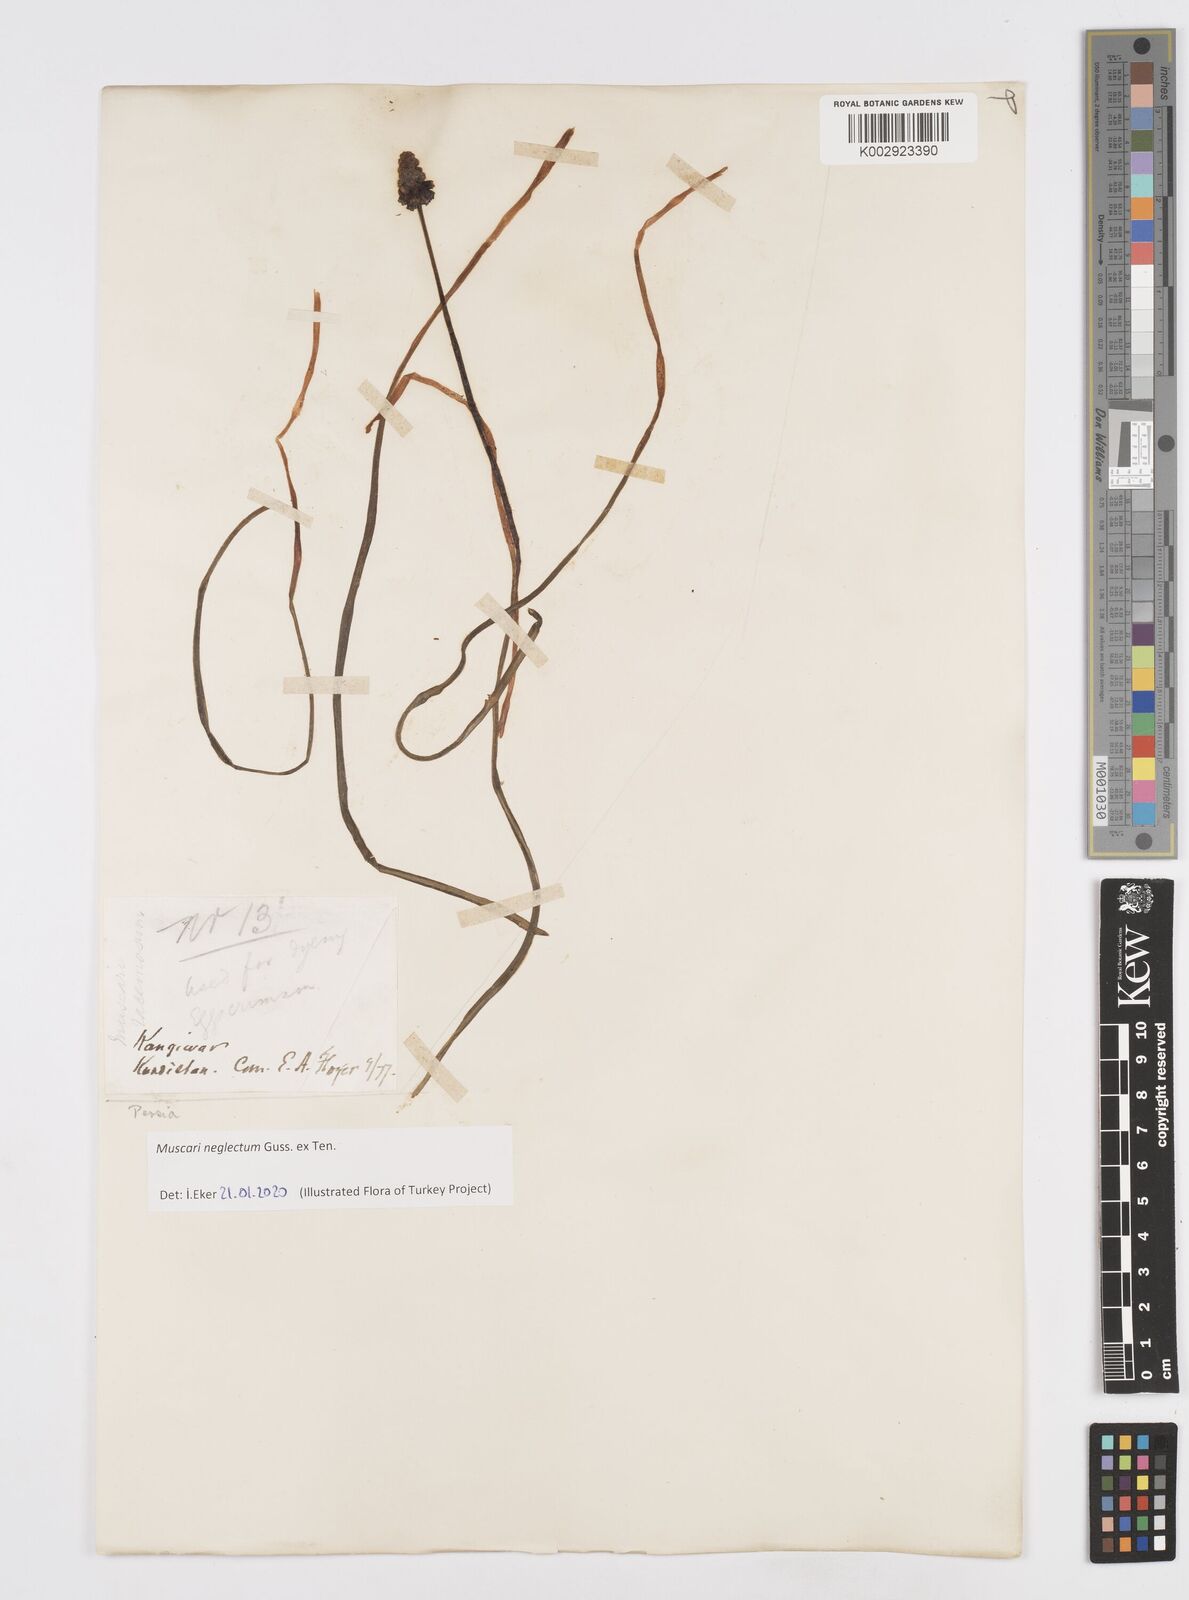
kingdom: Plantae
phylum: Tracheophyta
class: Liliopsida
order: Asparagales
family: Asparagaceae
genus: Muscari
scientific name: Muscari neglectum
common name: Grape-hyacinth
